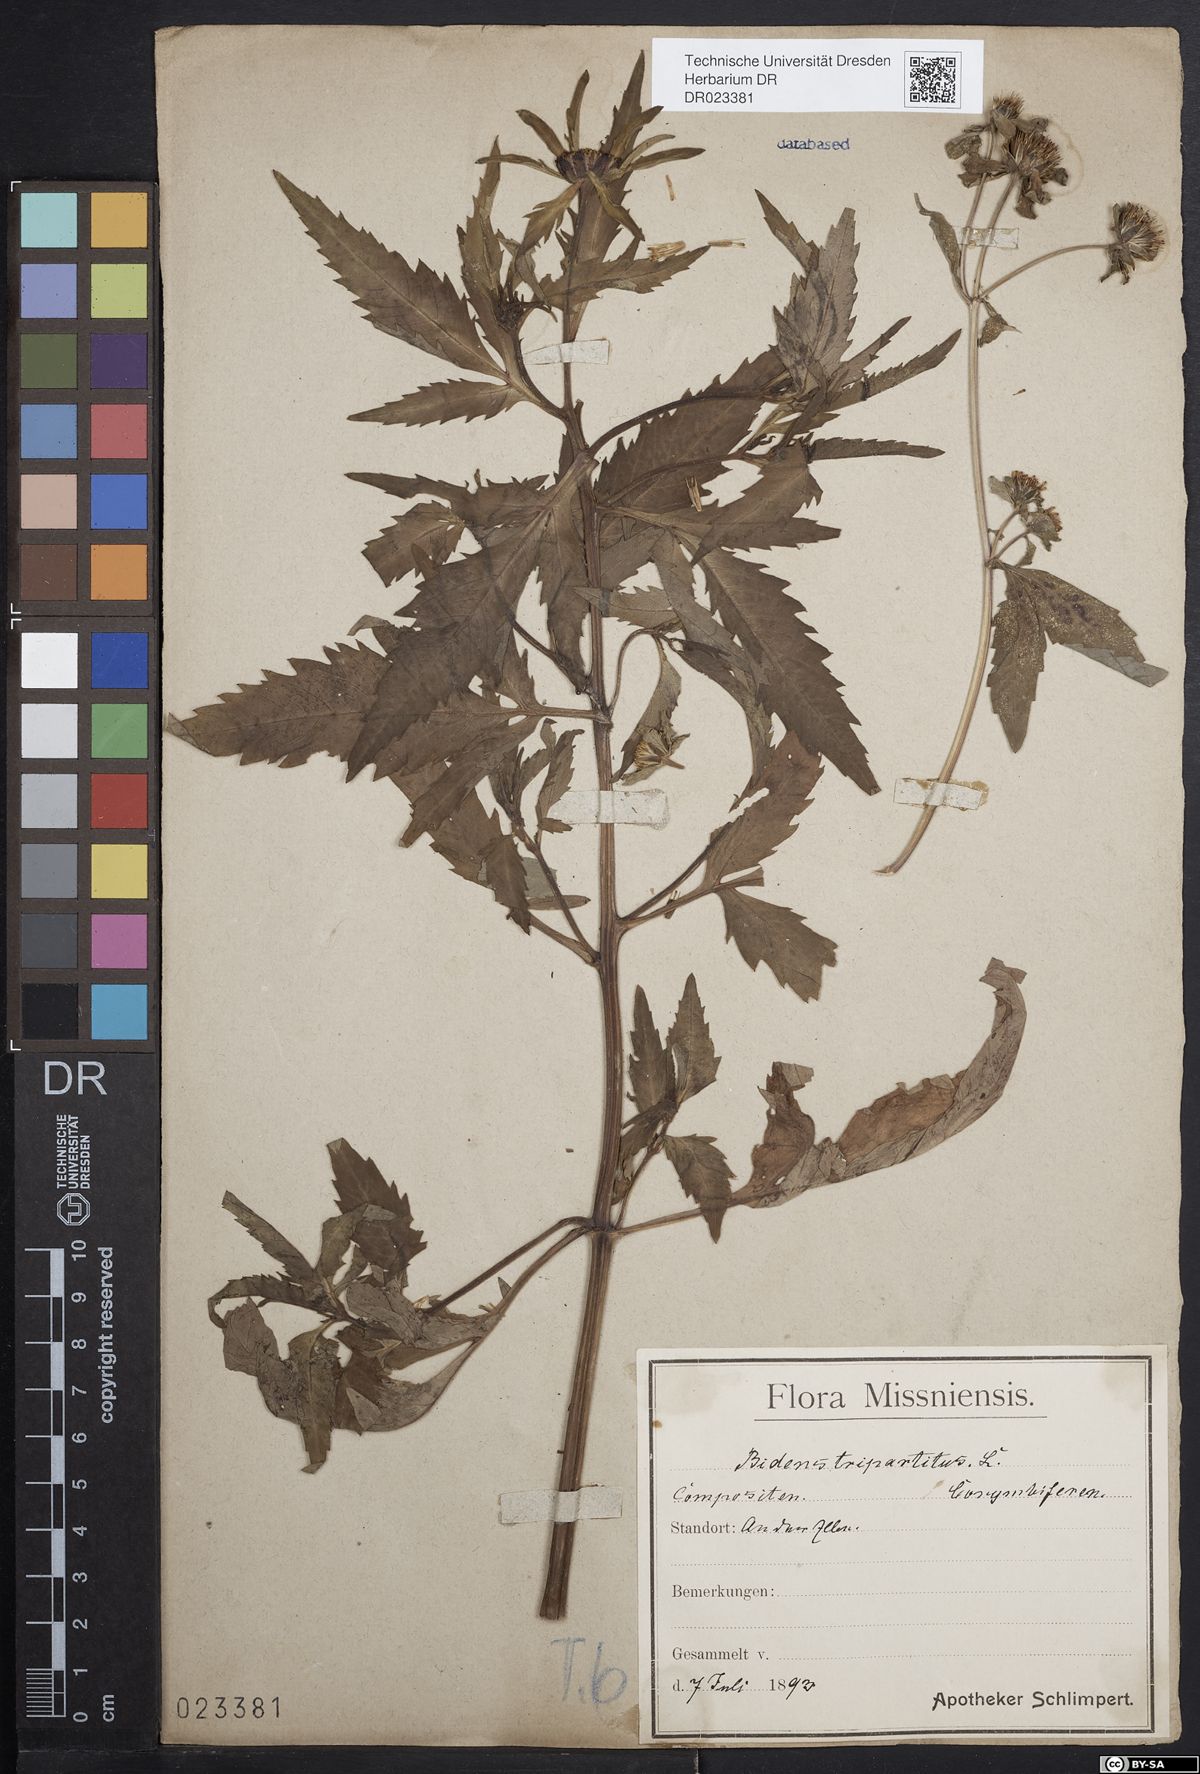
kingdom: Plantae
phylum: Tracheophyta
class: Magnoliopsida
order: Asterales
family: Asteraceae
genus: Bidens
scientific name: Bidens tripartita
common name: Trifid bur-marigold
